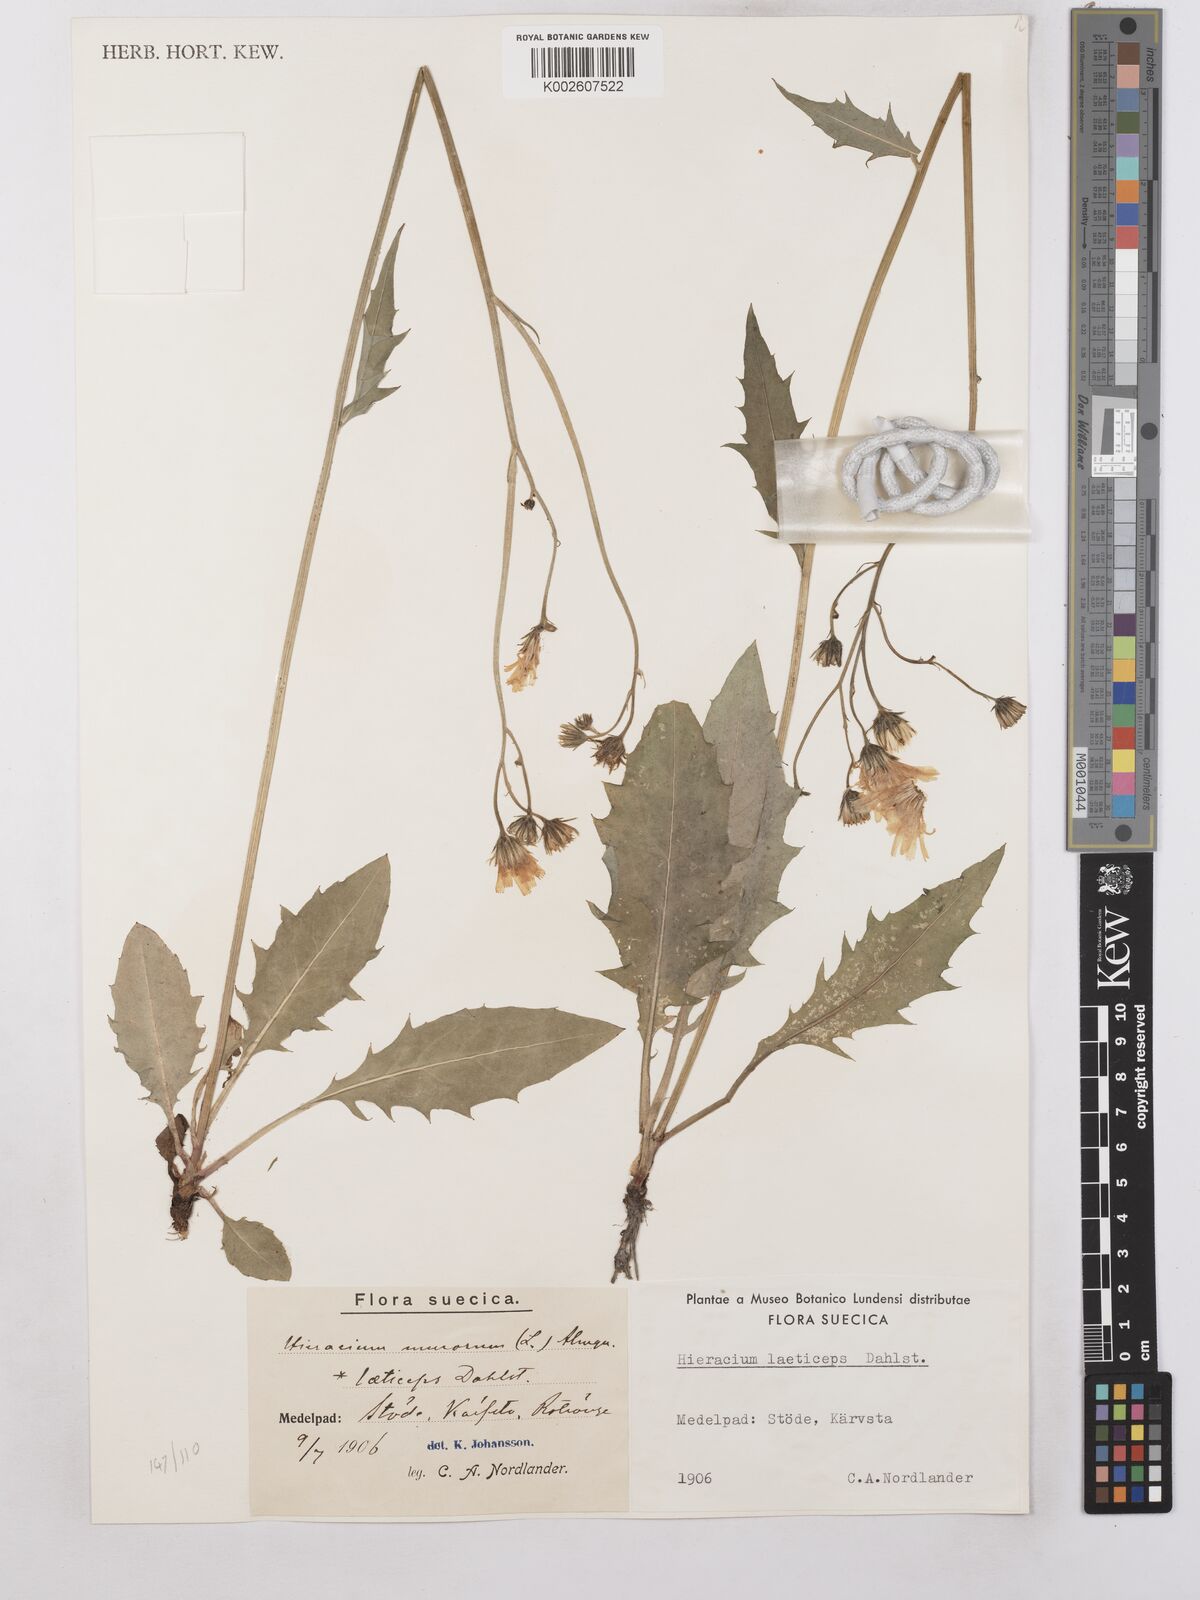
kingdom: Plantae
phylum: Tracheophyta
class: Magnoliopsida
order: Asterales
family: Asteraceae
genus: Hieracium
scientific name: Hieracium caesium
